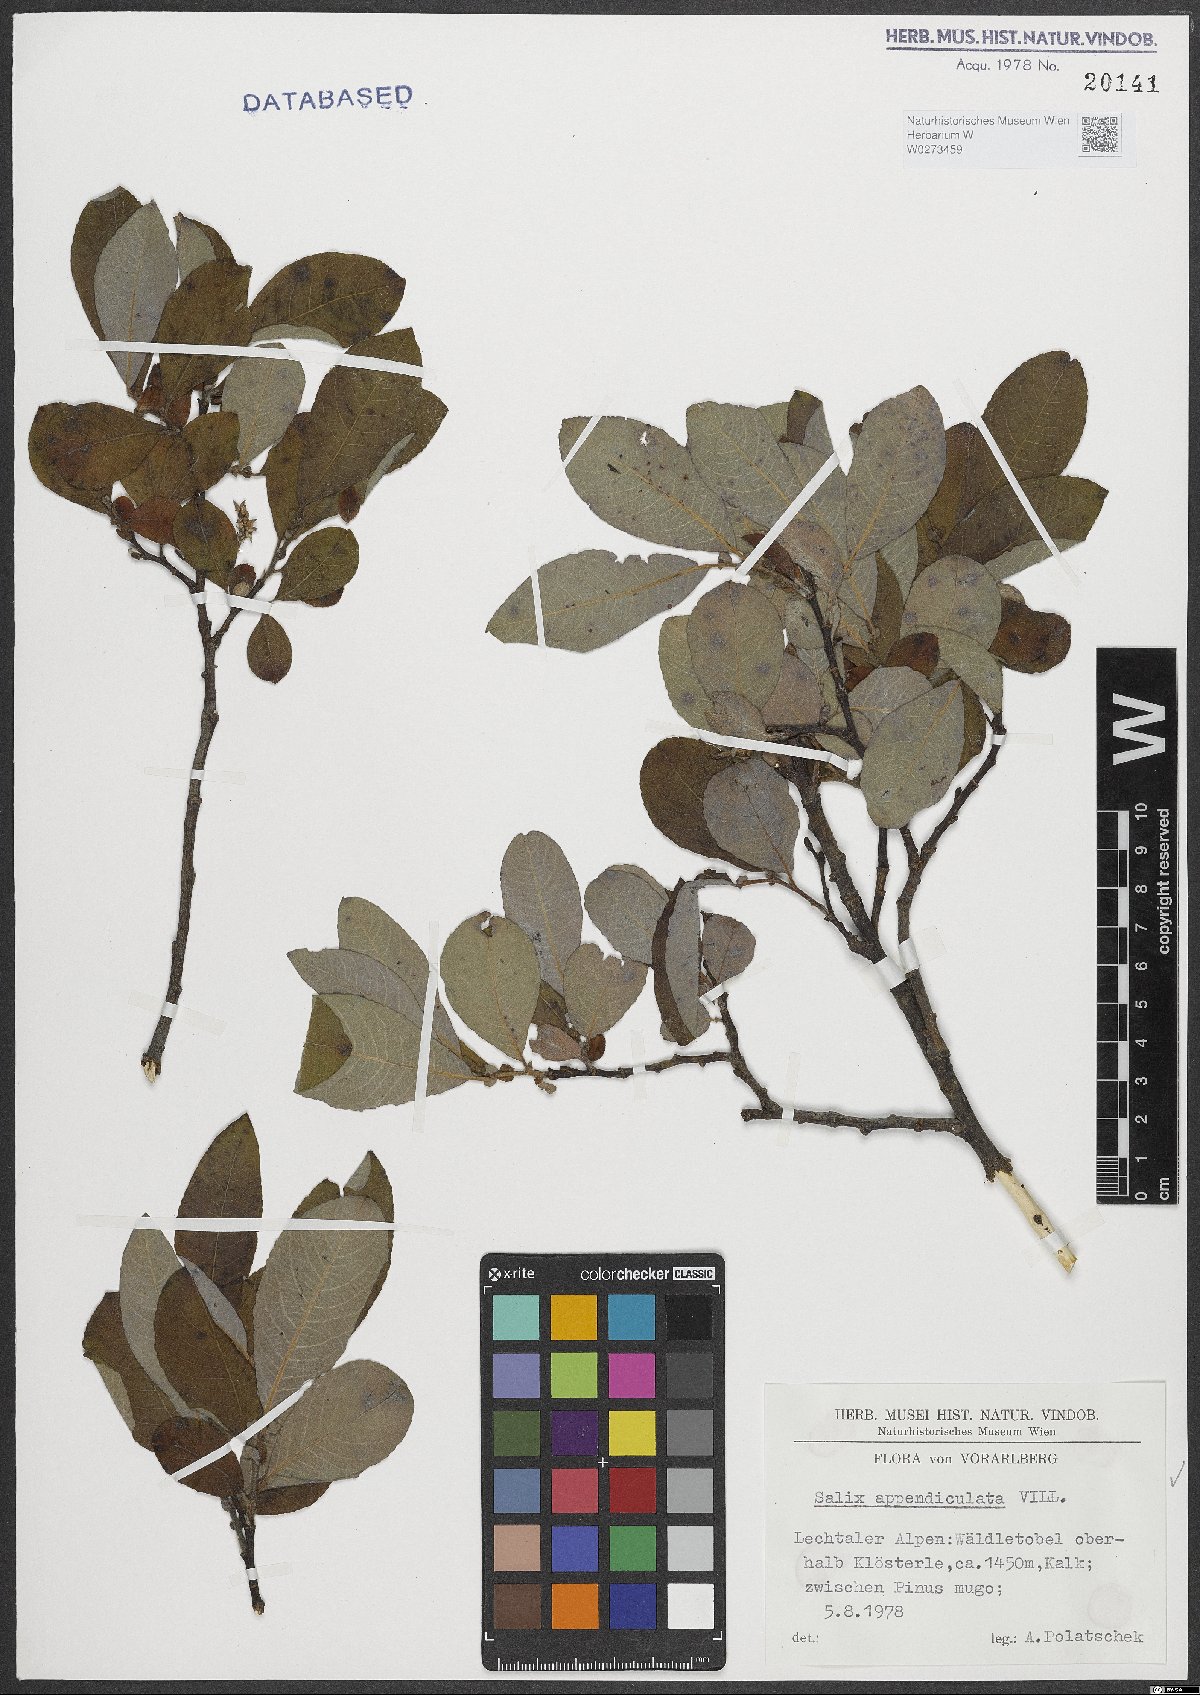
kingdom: Plantae
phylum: Tracheophyta
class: Magnoliopsida
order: Malpighiales
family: Salicaceae
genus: Salix
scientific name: Salix appendiculata
